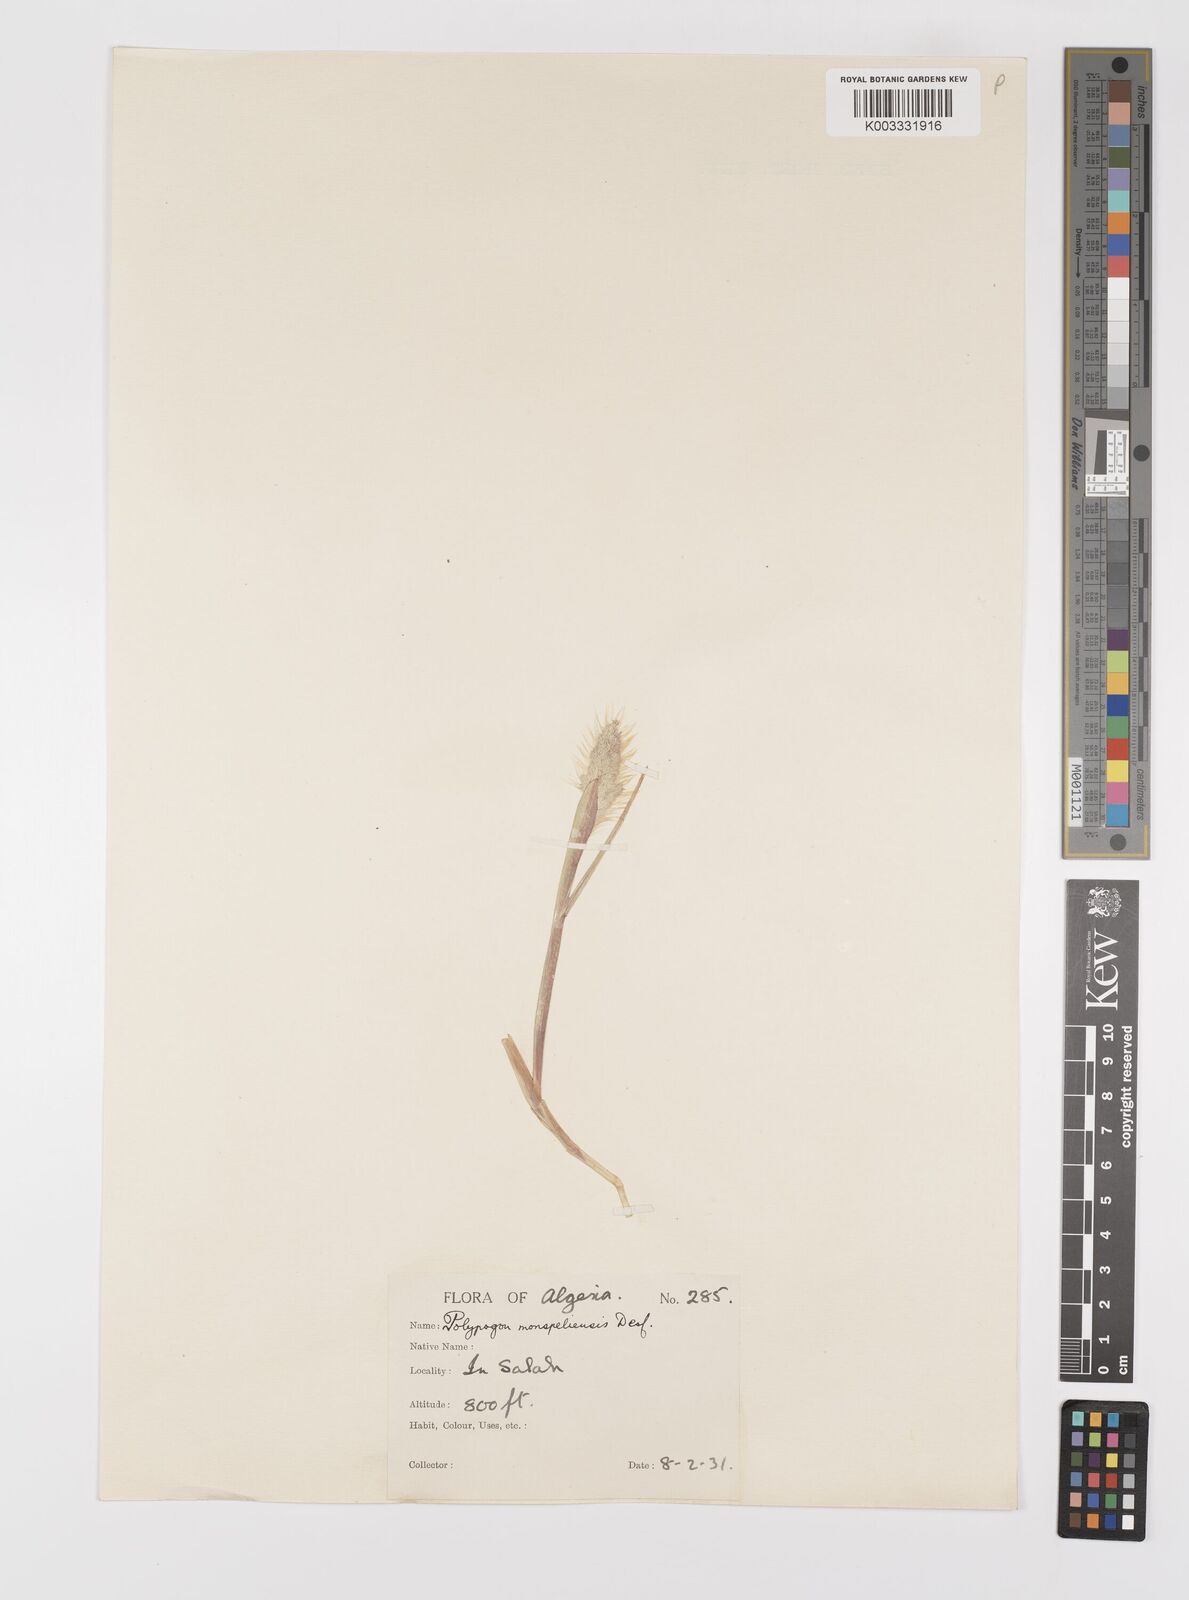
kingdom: Plantae
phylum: Tracheophyta
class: Liliopsida
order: Poales
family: Poaceae
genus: Polypogon
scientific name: Polypogon monspeliensis
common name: Annual rabbitsfoot grass
